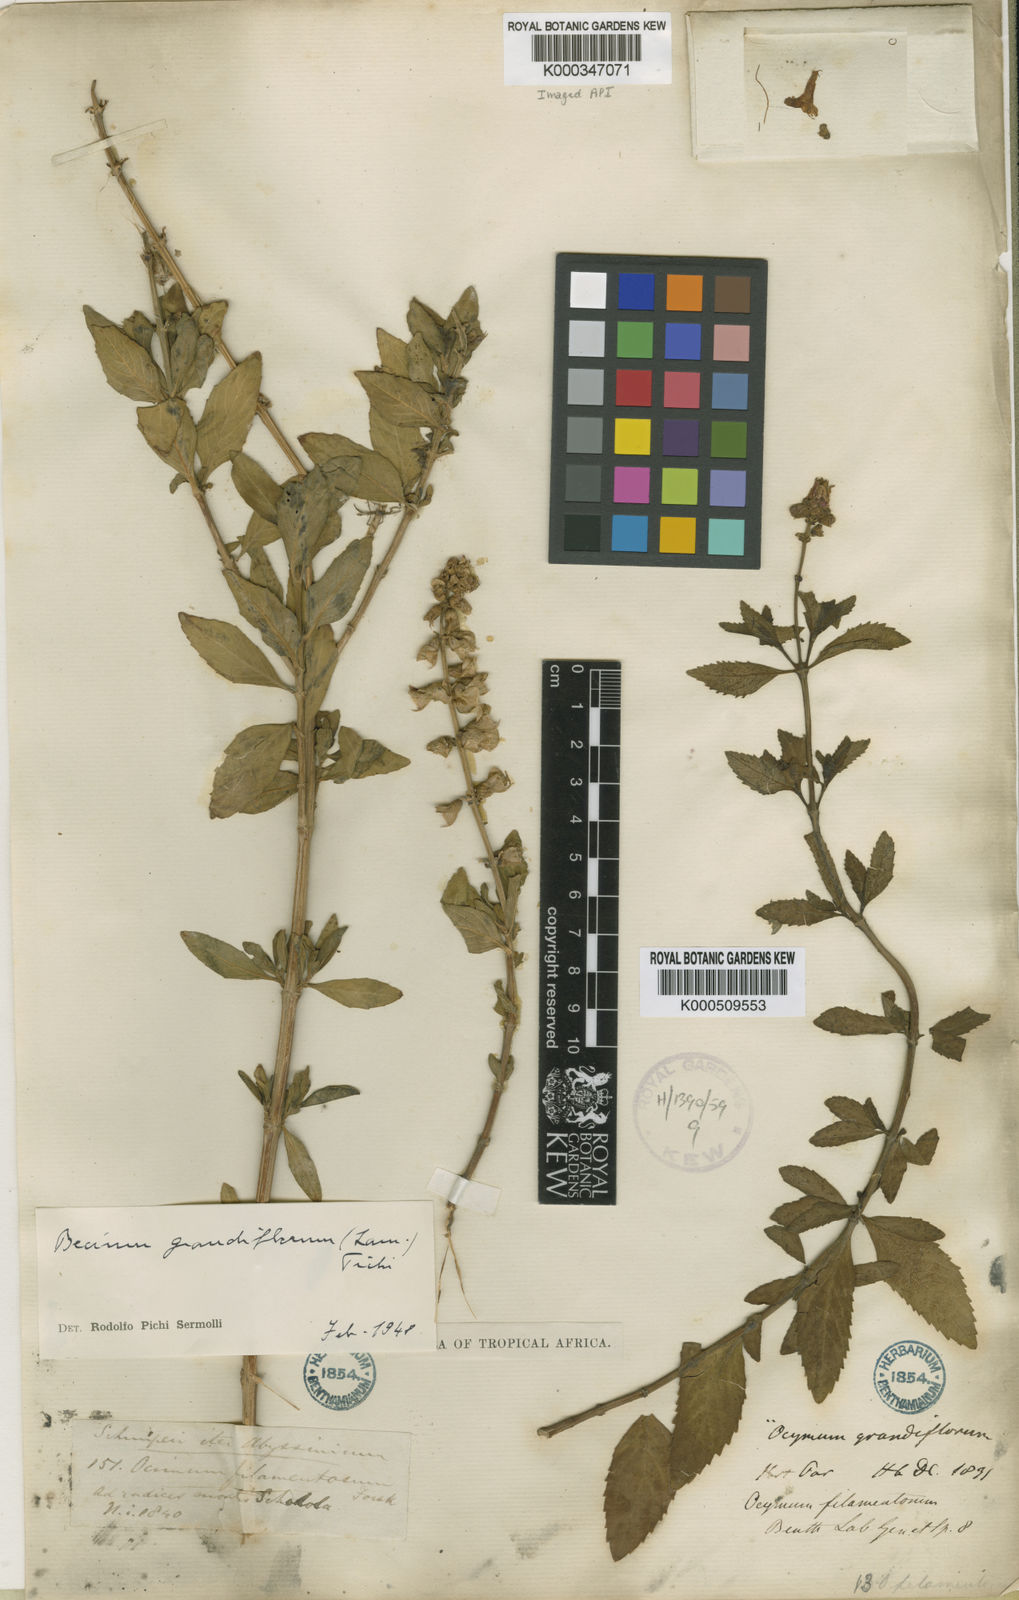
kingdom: Plantae
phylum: Tracheophyta
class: Magnoliopsida
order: Lamiales
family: Lamiaceae
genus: Ocimum
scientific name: Ocimum grandiflorum
